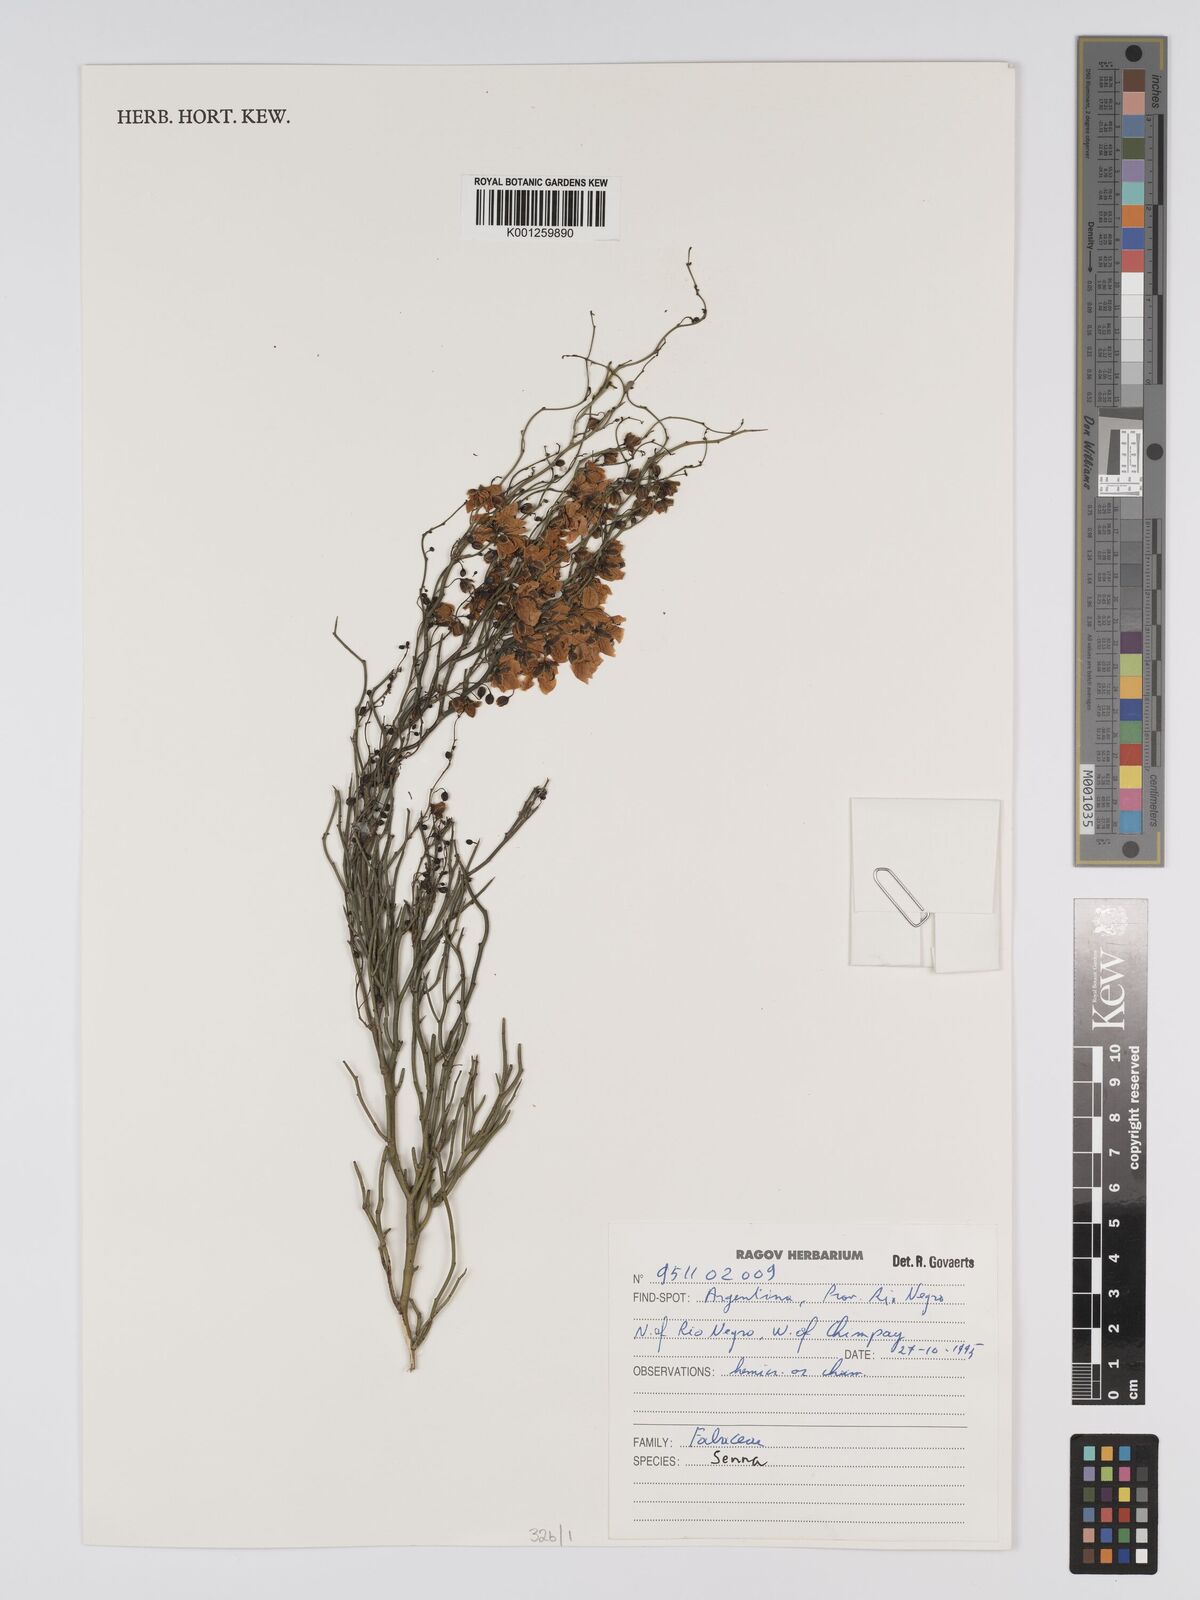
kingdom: Plantae
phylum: Tracheophyta
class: Magnoliopsida
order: Fabales
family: Fabaceae
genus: Senna
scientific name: Senna
